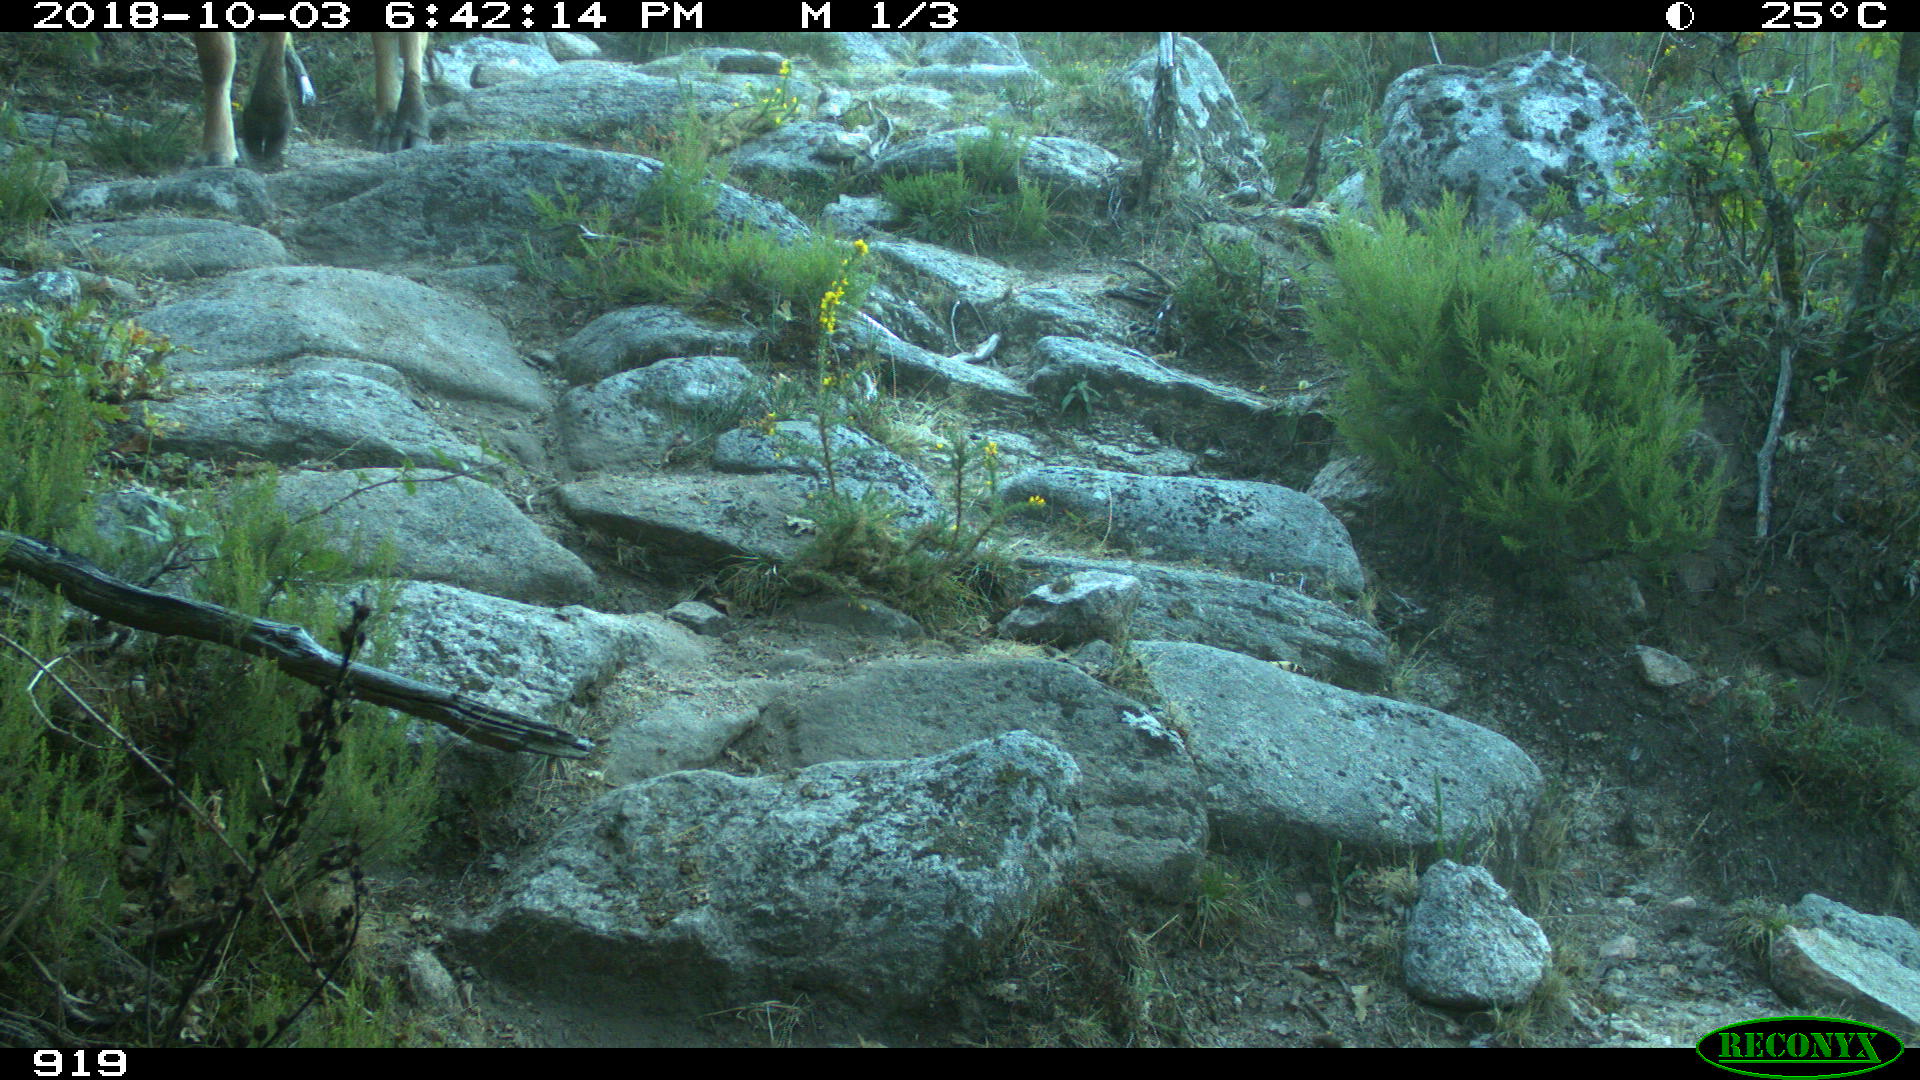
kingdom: Animalia
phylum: Chordata
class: Mammalia
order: Artiodactyla
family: Bovidae
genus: Bos
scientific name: Bos taurus
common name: Domesticated cattle
